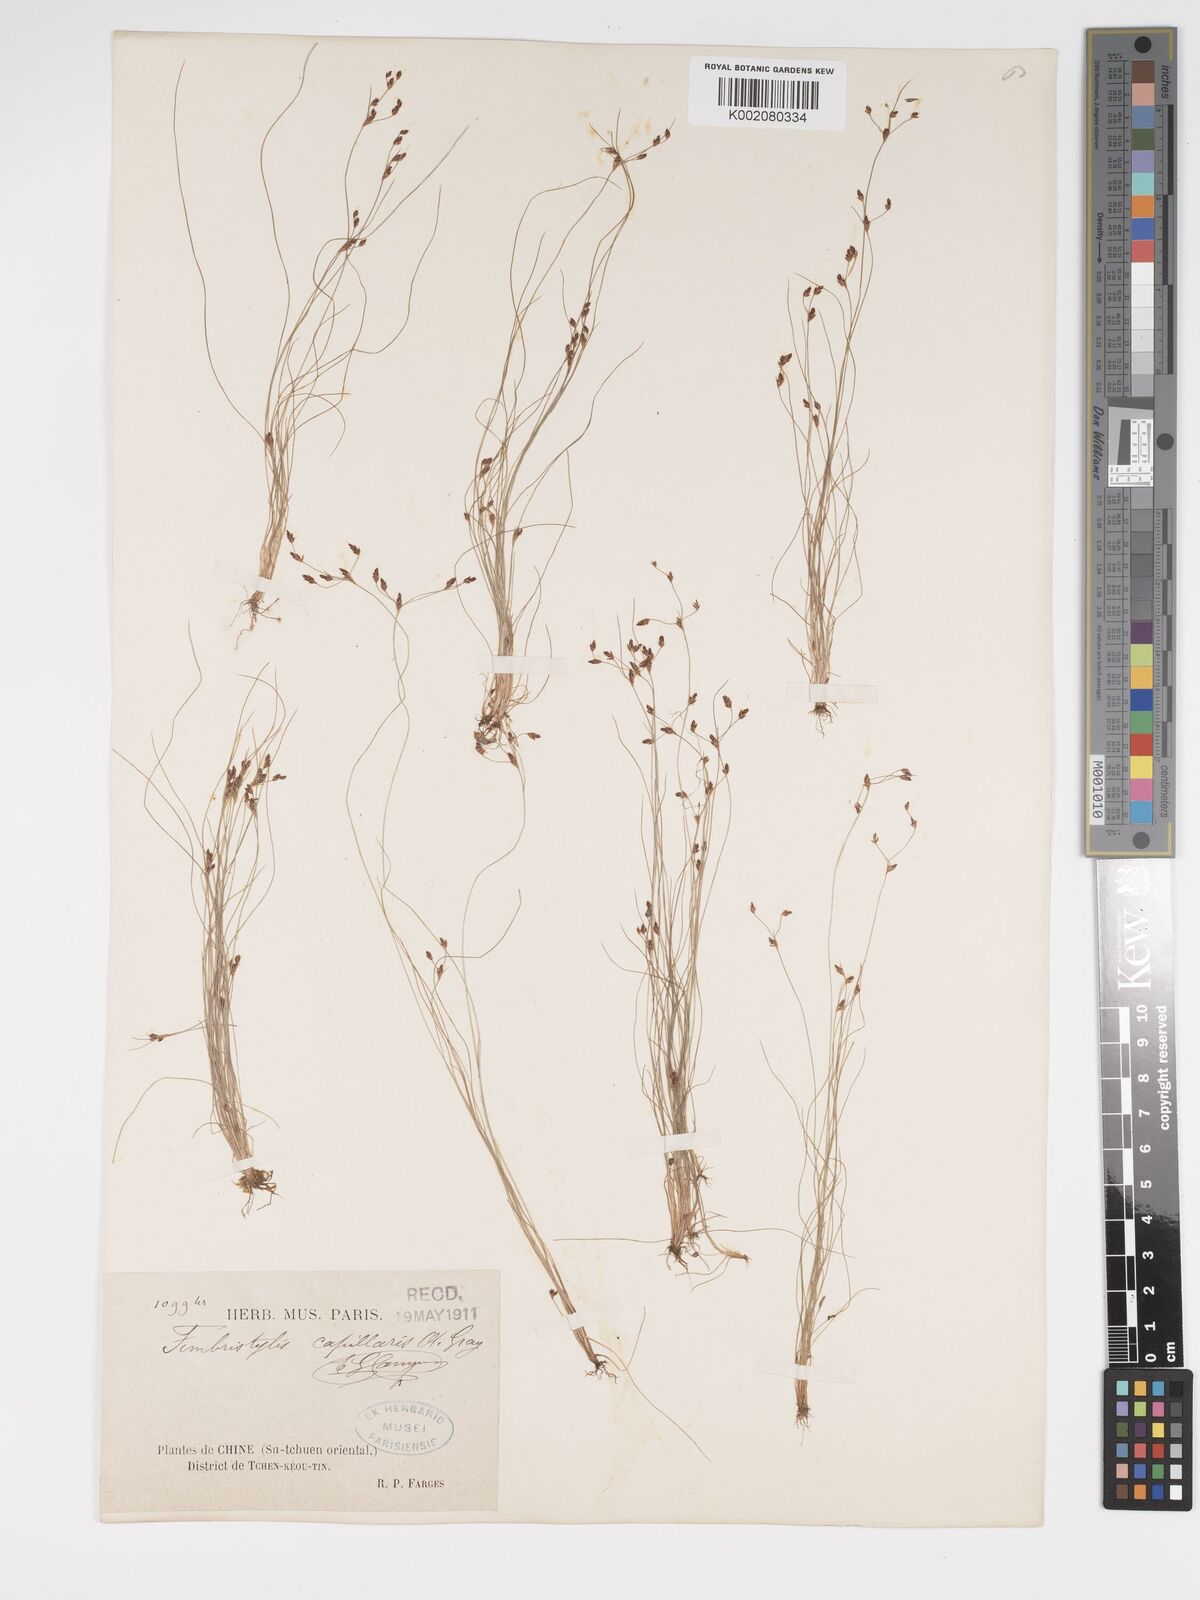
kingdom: Plantae
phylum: Tracheophyta
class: Liliopsida
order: Poales
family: Cyperaceae
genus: Bulbostylis
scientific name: Bulbostylis capillaris
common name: Densetuft hairsedge
